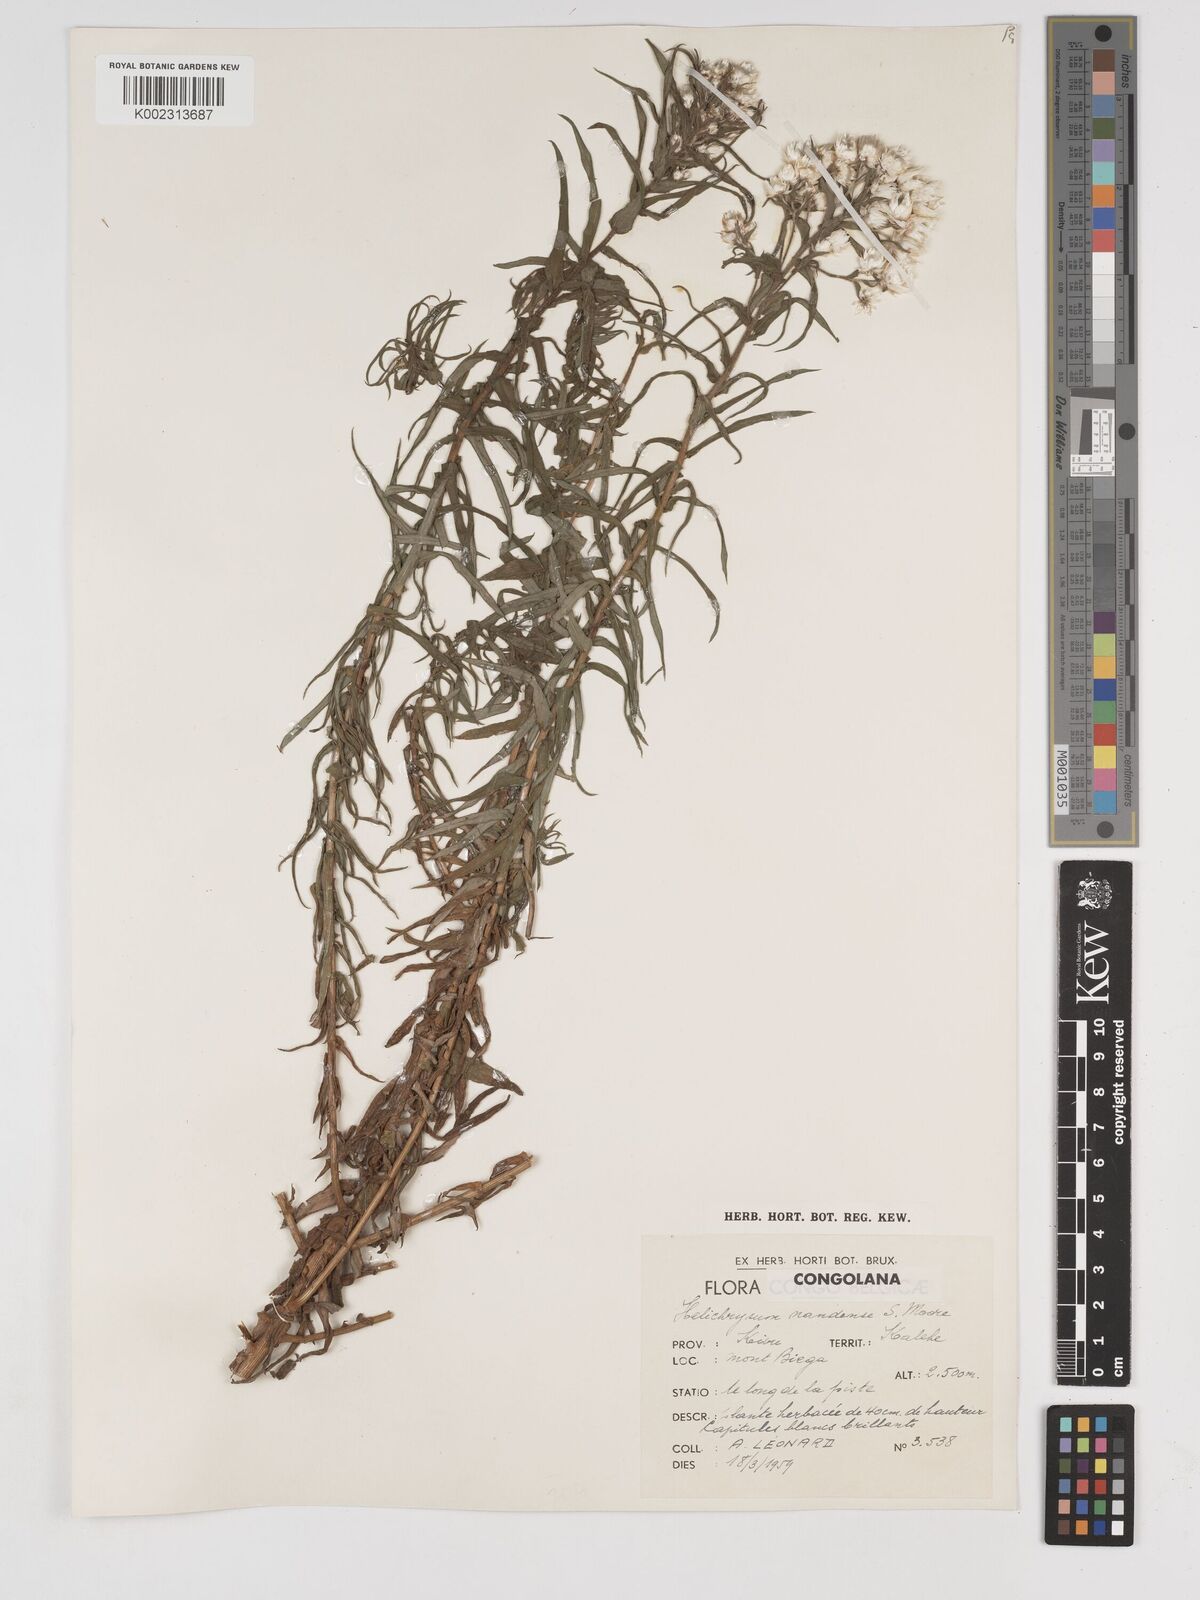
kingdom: Plantae
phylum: Tracheophyta
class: Magnoliopsida
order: Asterales
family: Asteraceae
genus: Helichrysum
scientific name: Helichrysum argyranthum
